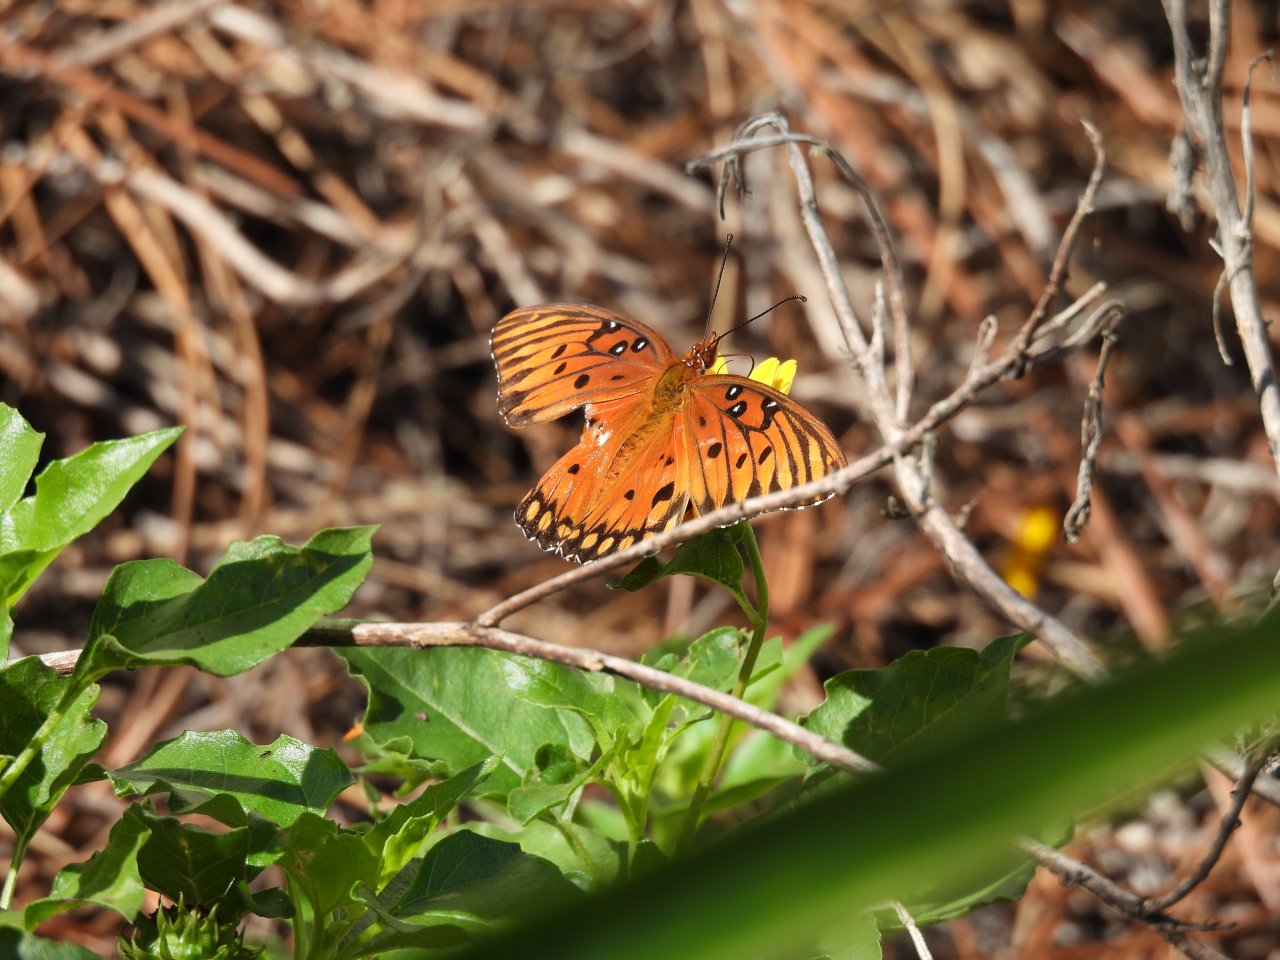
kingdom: Animalia
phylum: Arthropoda
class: Insecta
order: Lepidoptera
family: Nymphalidae
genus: Dione
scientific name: Dione vanillae
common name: Gulf Fritillary
